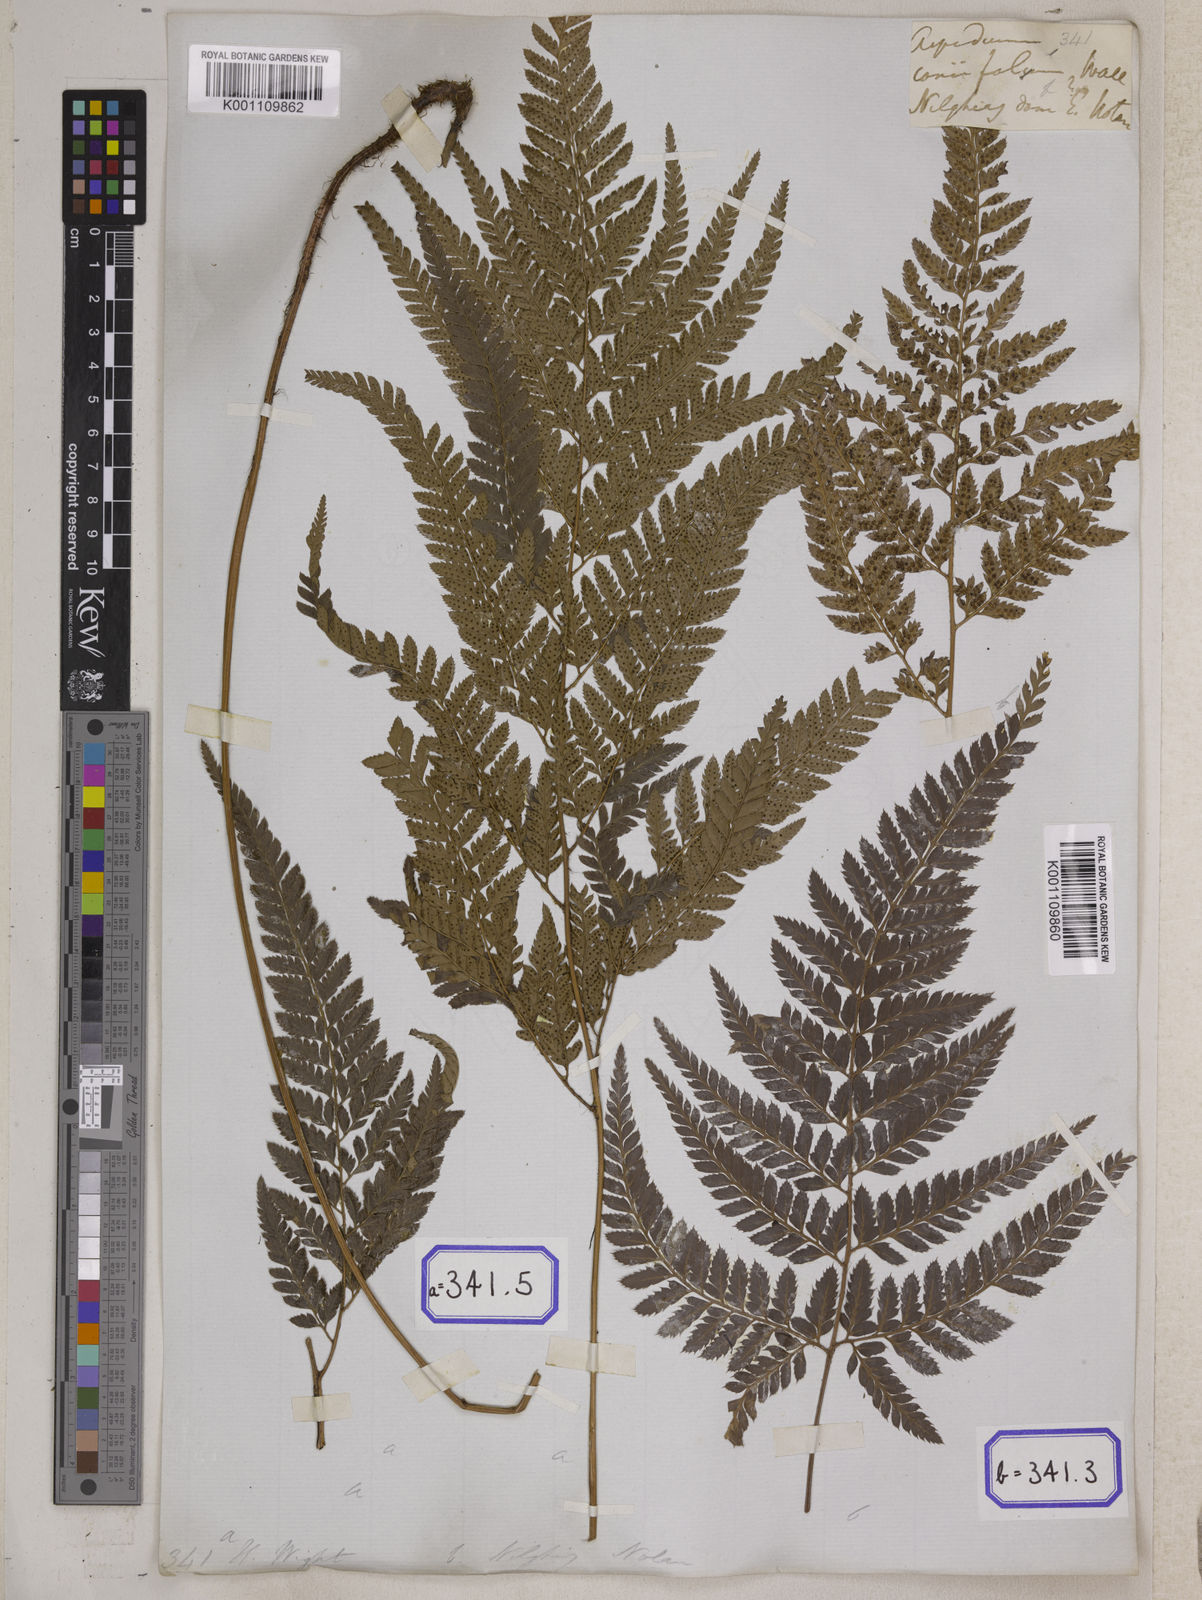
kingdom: Plantae
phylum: Tracheophyta
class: Polypodiopsida
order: Polypodiales
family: Dryopteridaceae
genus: Arachniodes
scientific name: Arachniodes coniifolia
